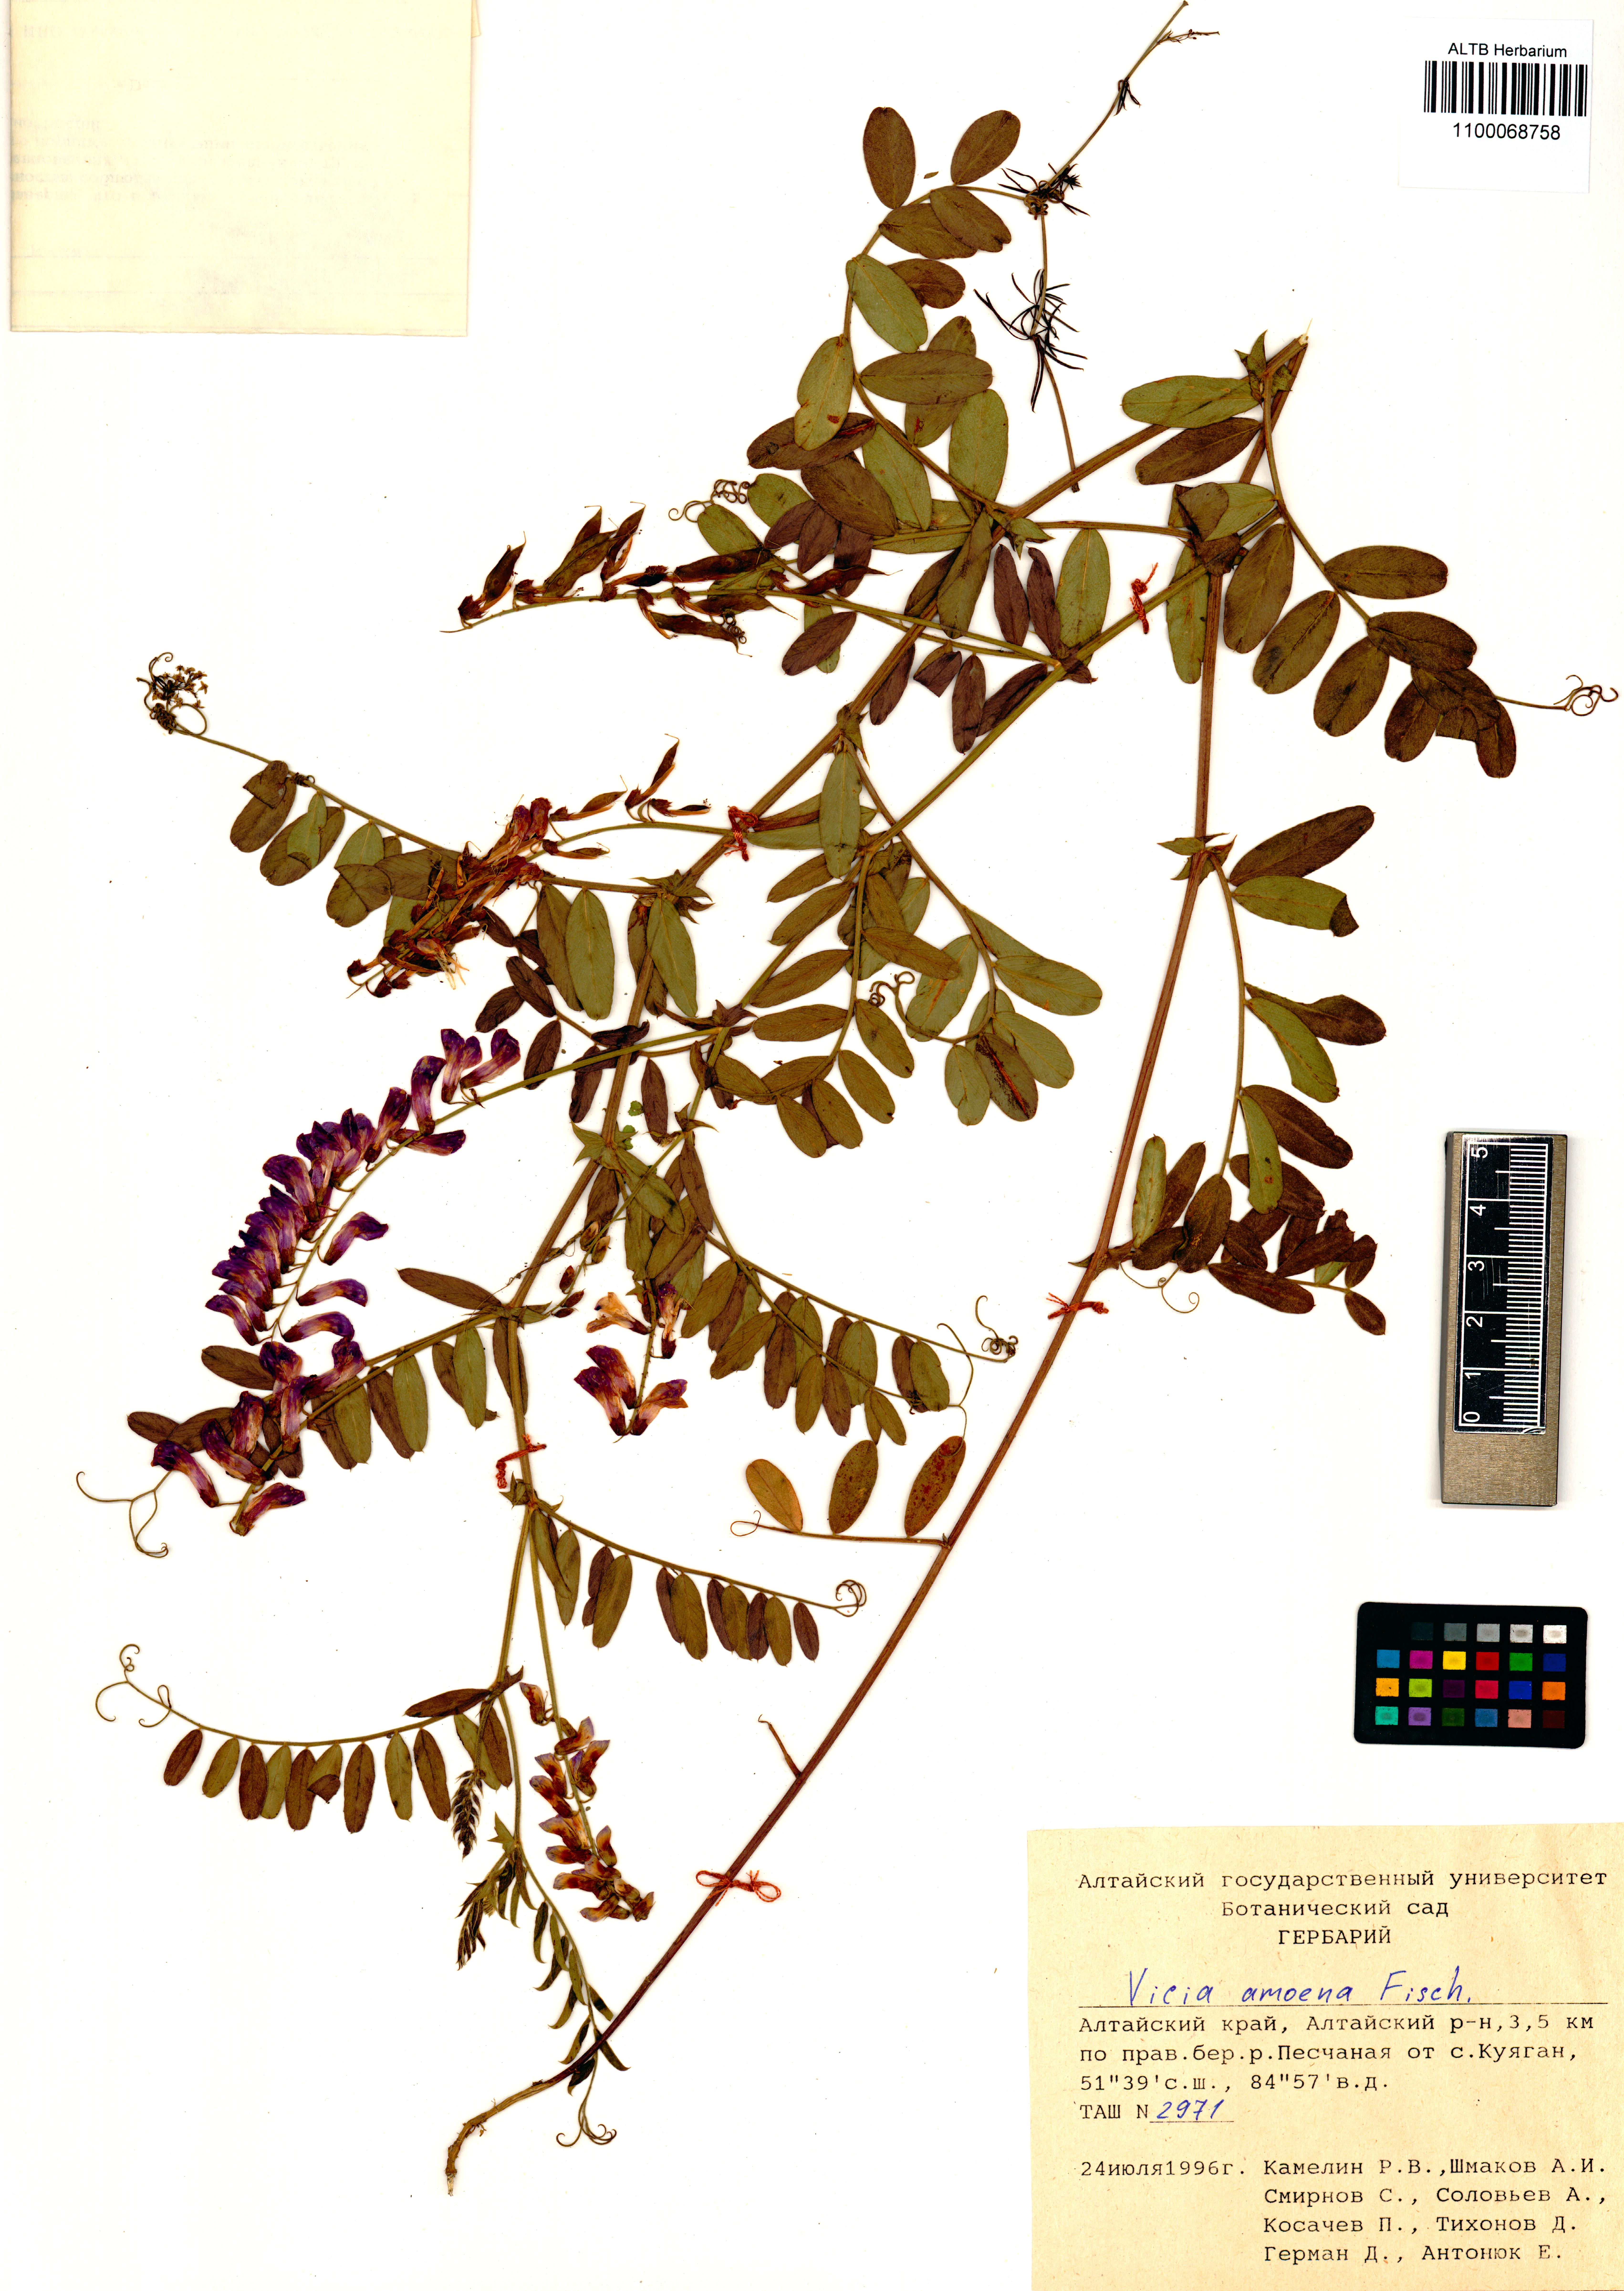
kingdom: Plantae
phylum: Tracheophyta
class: Magnoliopsida
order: Fabales
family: Fabaceae
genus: Vicia
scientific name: Vicia amoena
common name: Cheder ebs
